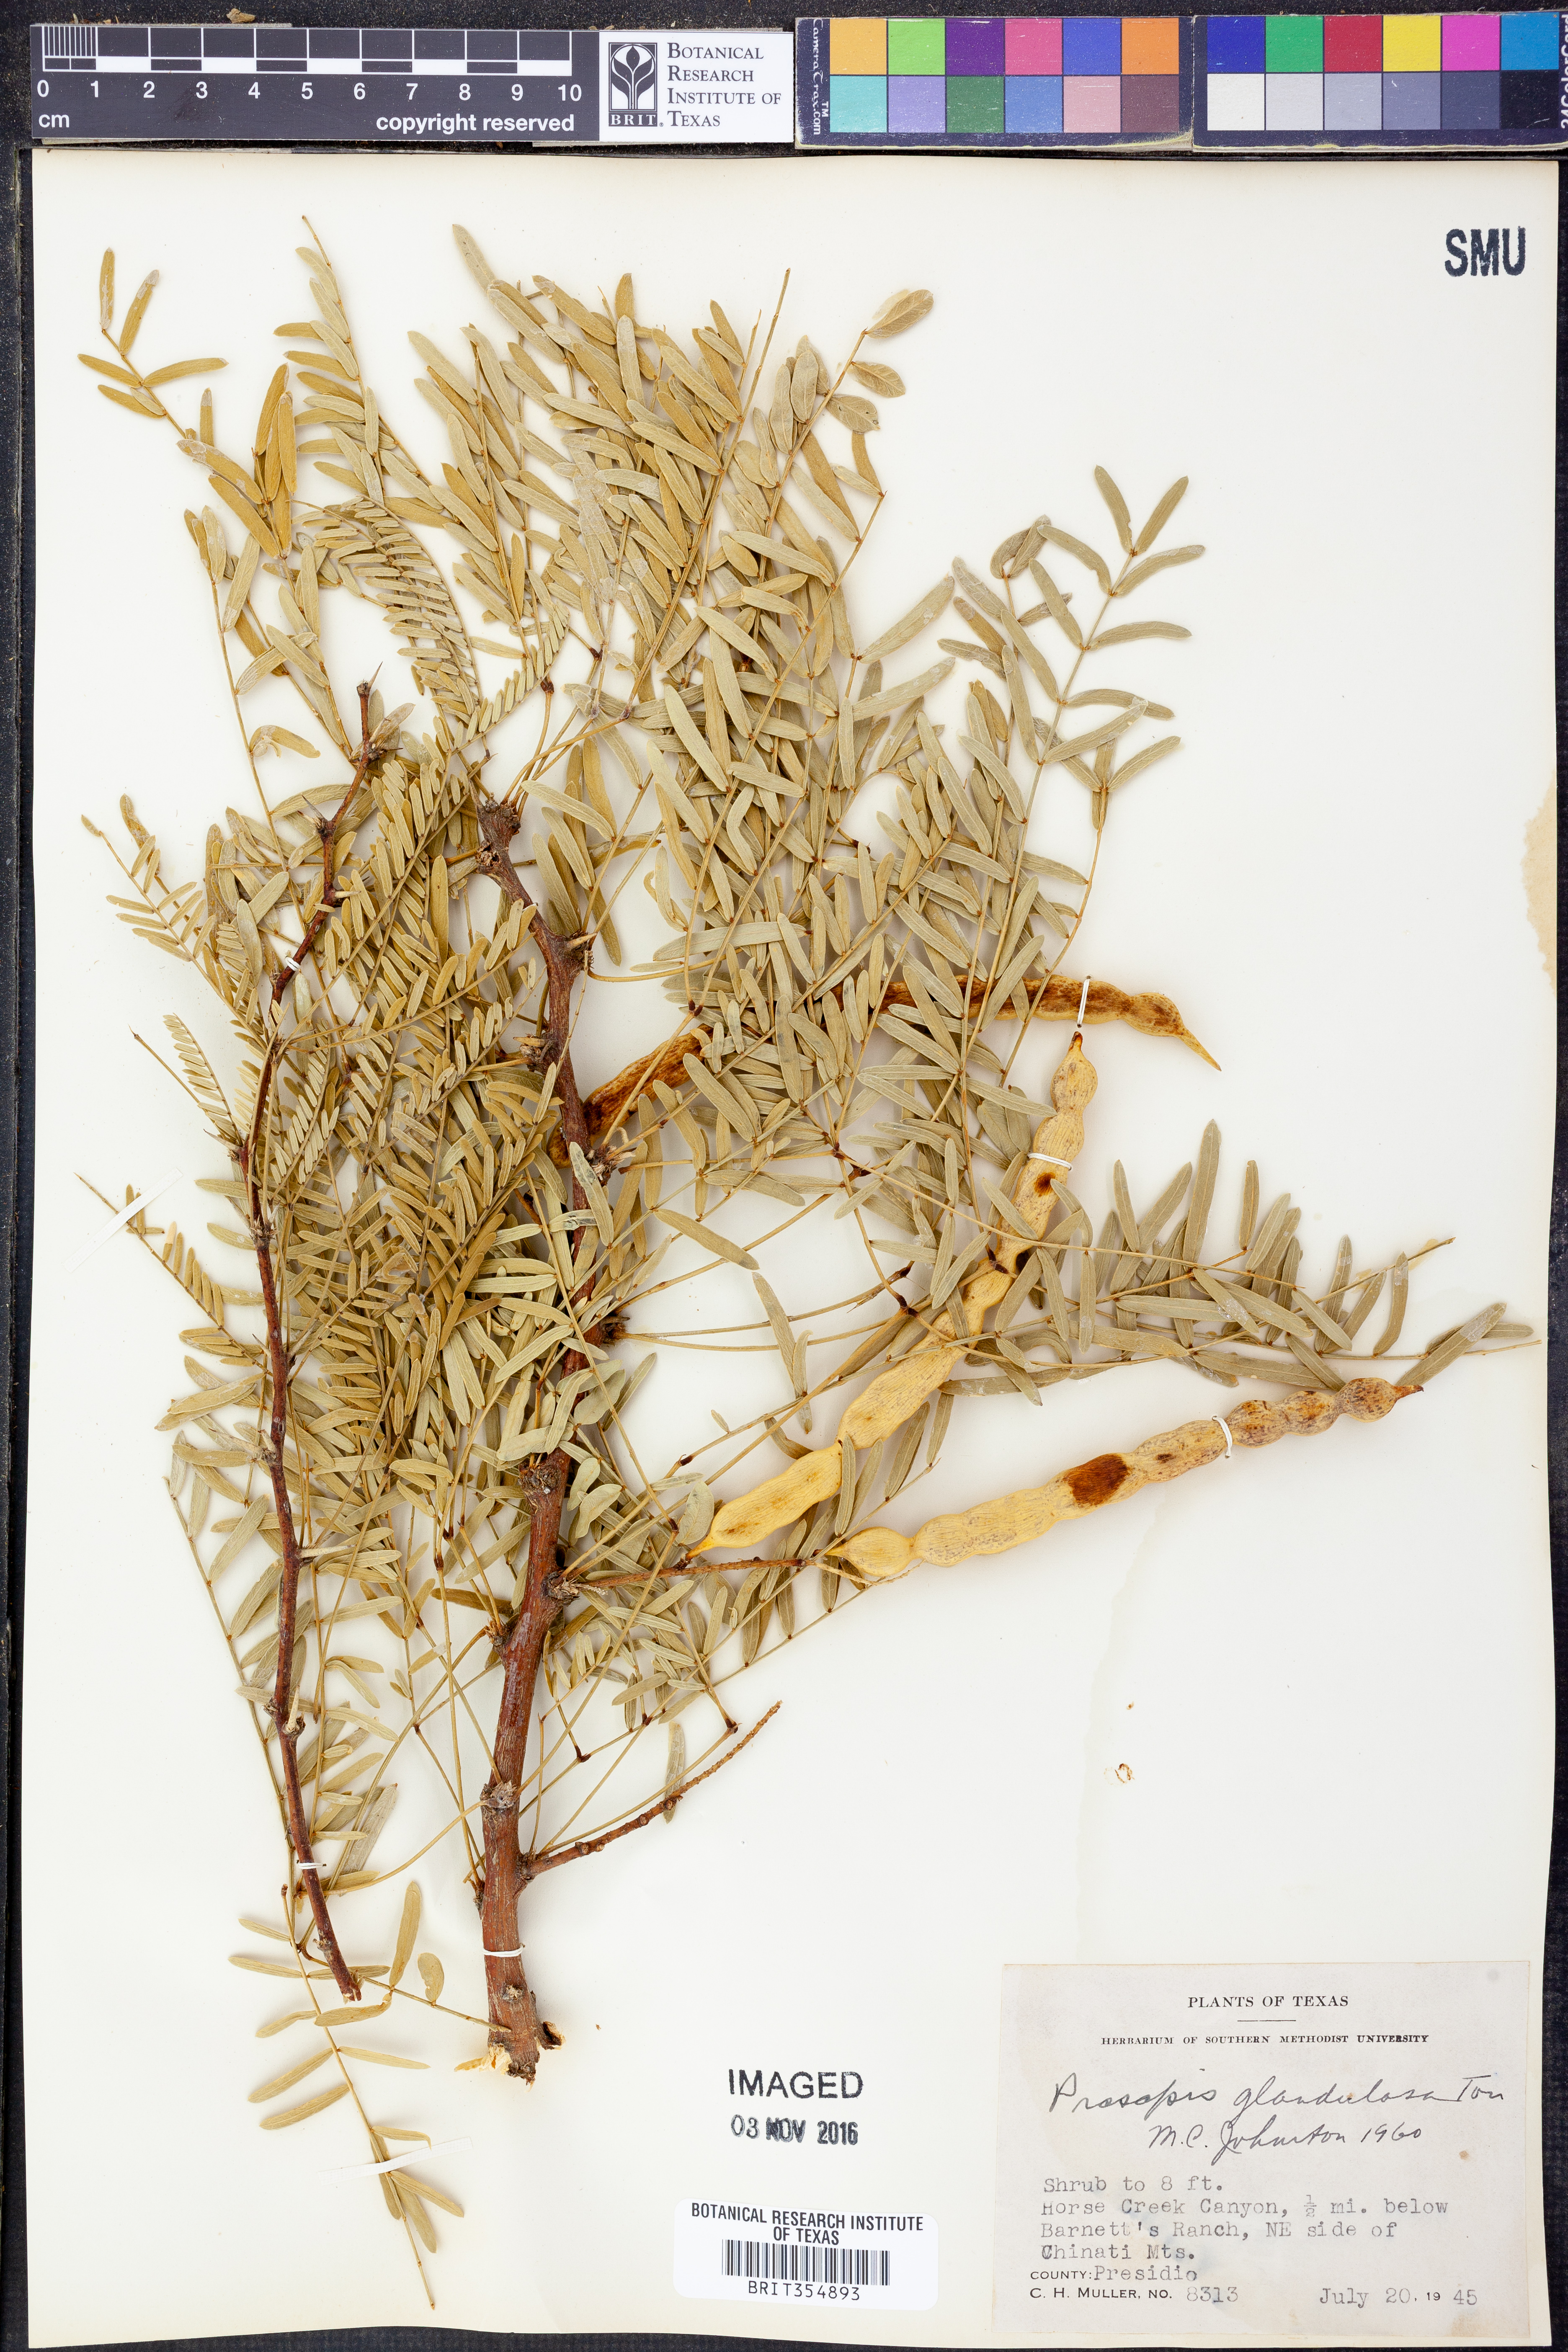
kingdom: Plantae
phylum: Tracheophyta
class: Magnoliopsida
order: Fabales
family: Fabaceae
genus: Prosopis
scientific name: Prosopis glandulosa
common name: Honey mesquite
